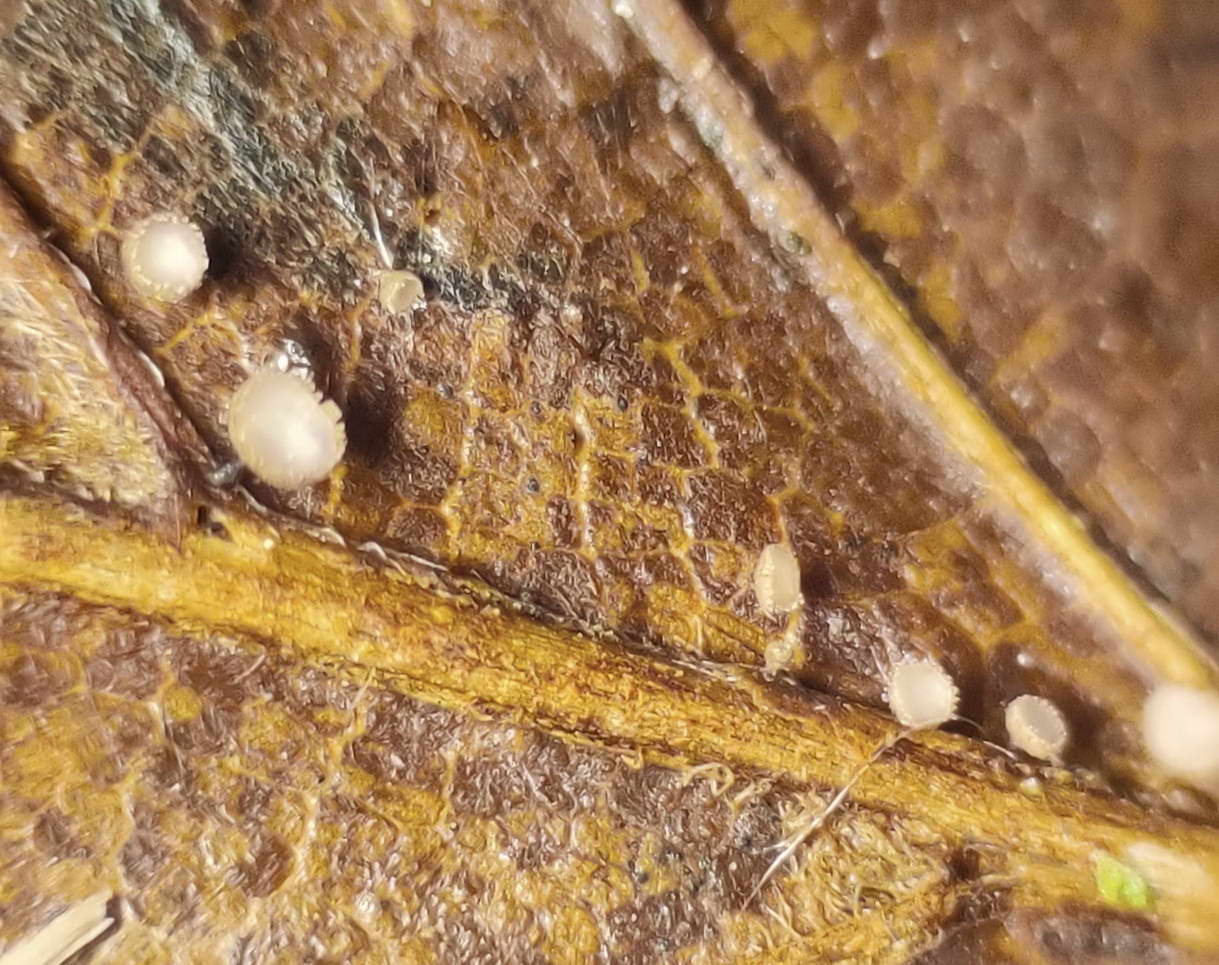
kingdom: Fungi
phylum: Ascomycota
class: Leotiomycetes
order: Helotiales
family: Lachnaceae
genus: Brunnipila
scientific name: Brunnipila fuscescens
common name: bøge-frynseskive
